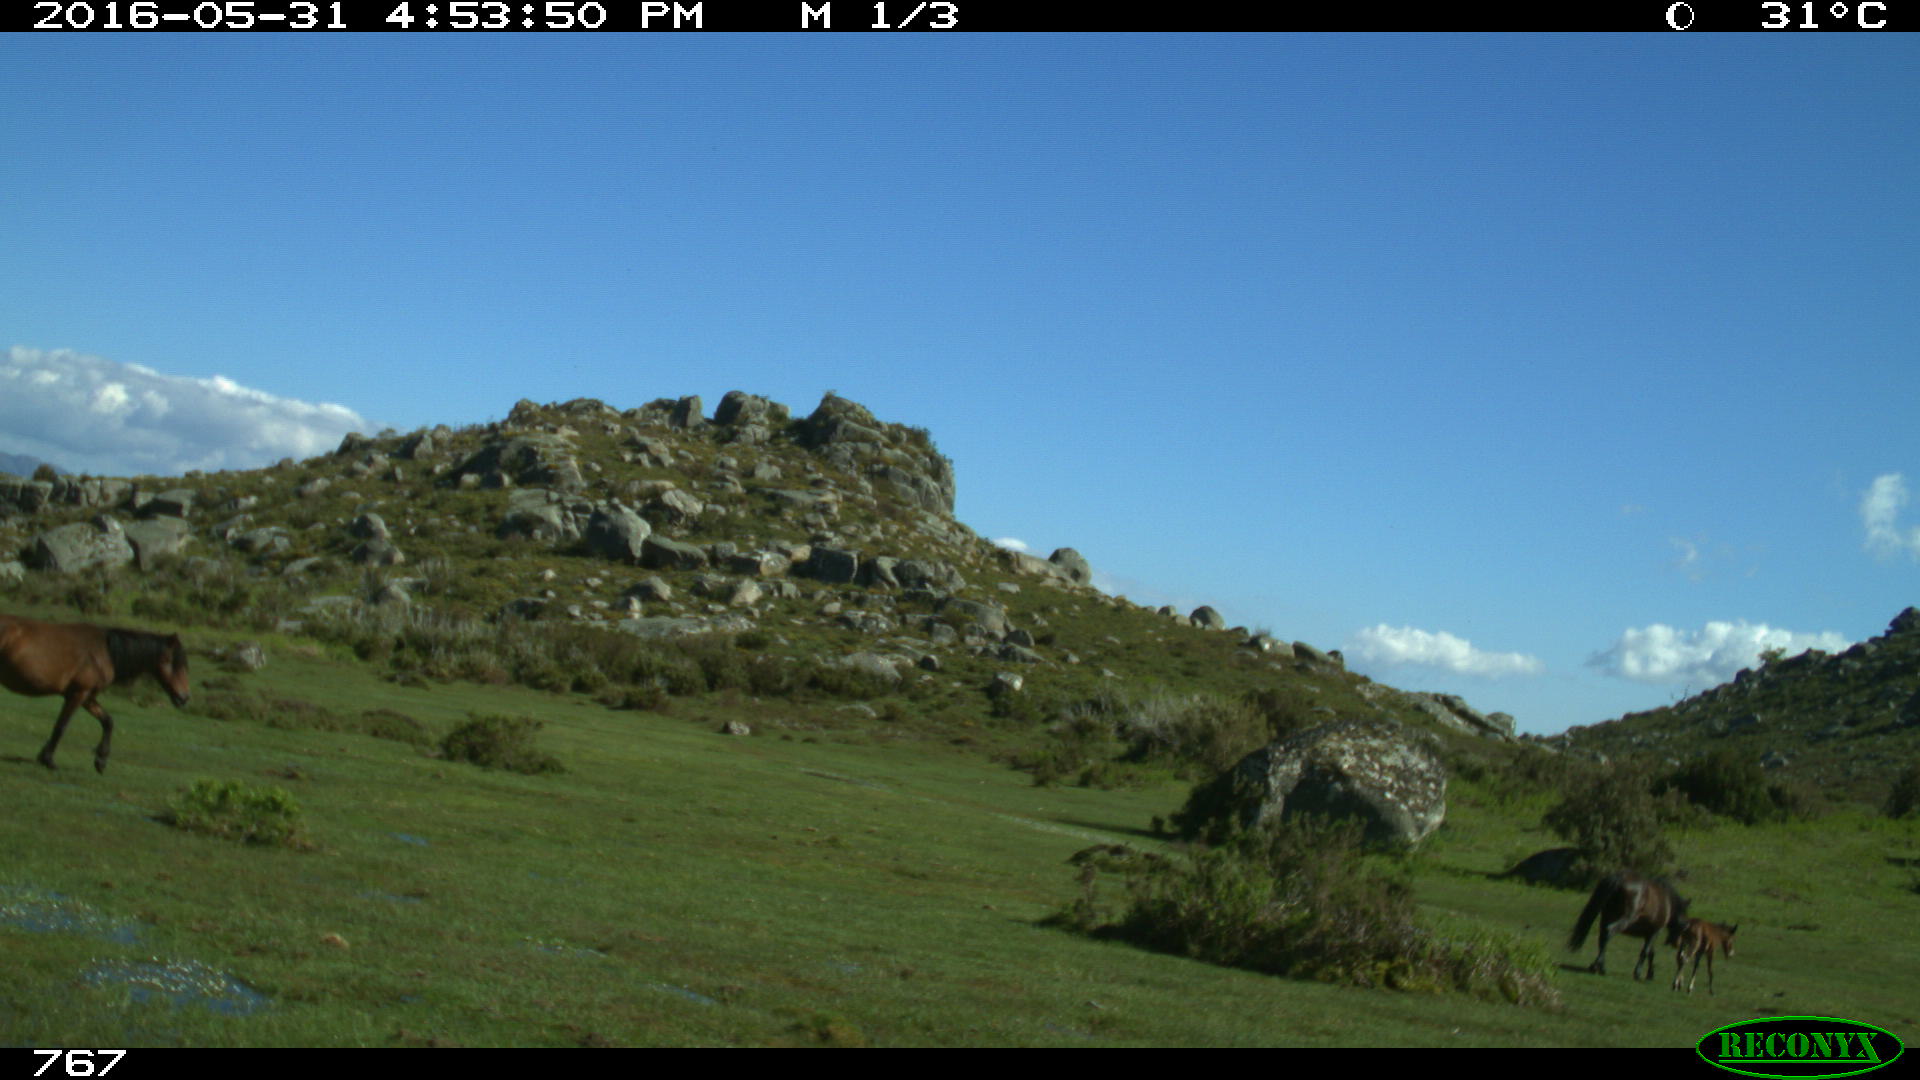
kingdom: Animalia
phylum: Chordata
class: Mammalia
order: Perissodactyla
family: Equidae
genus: Equus
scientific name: Equus caballus
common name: Horse
